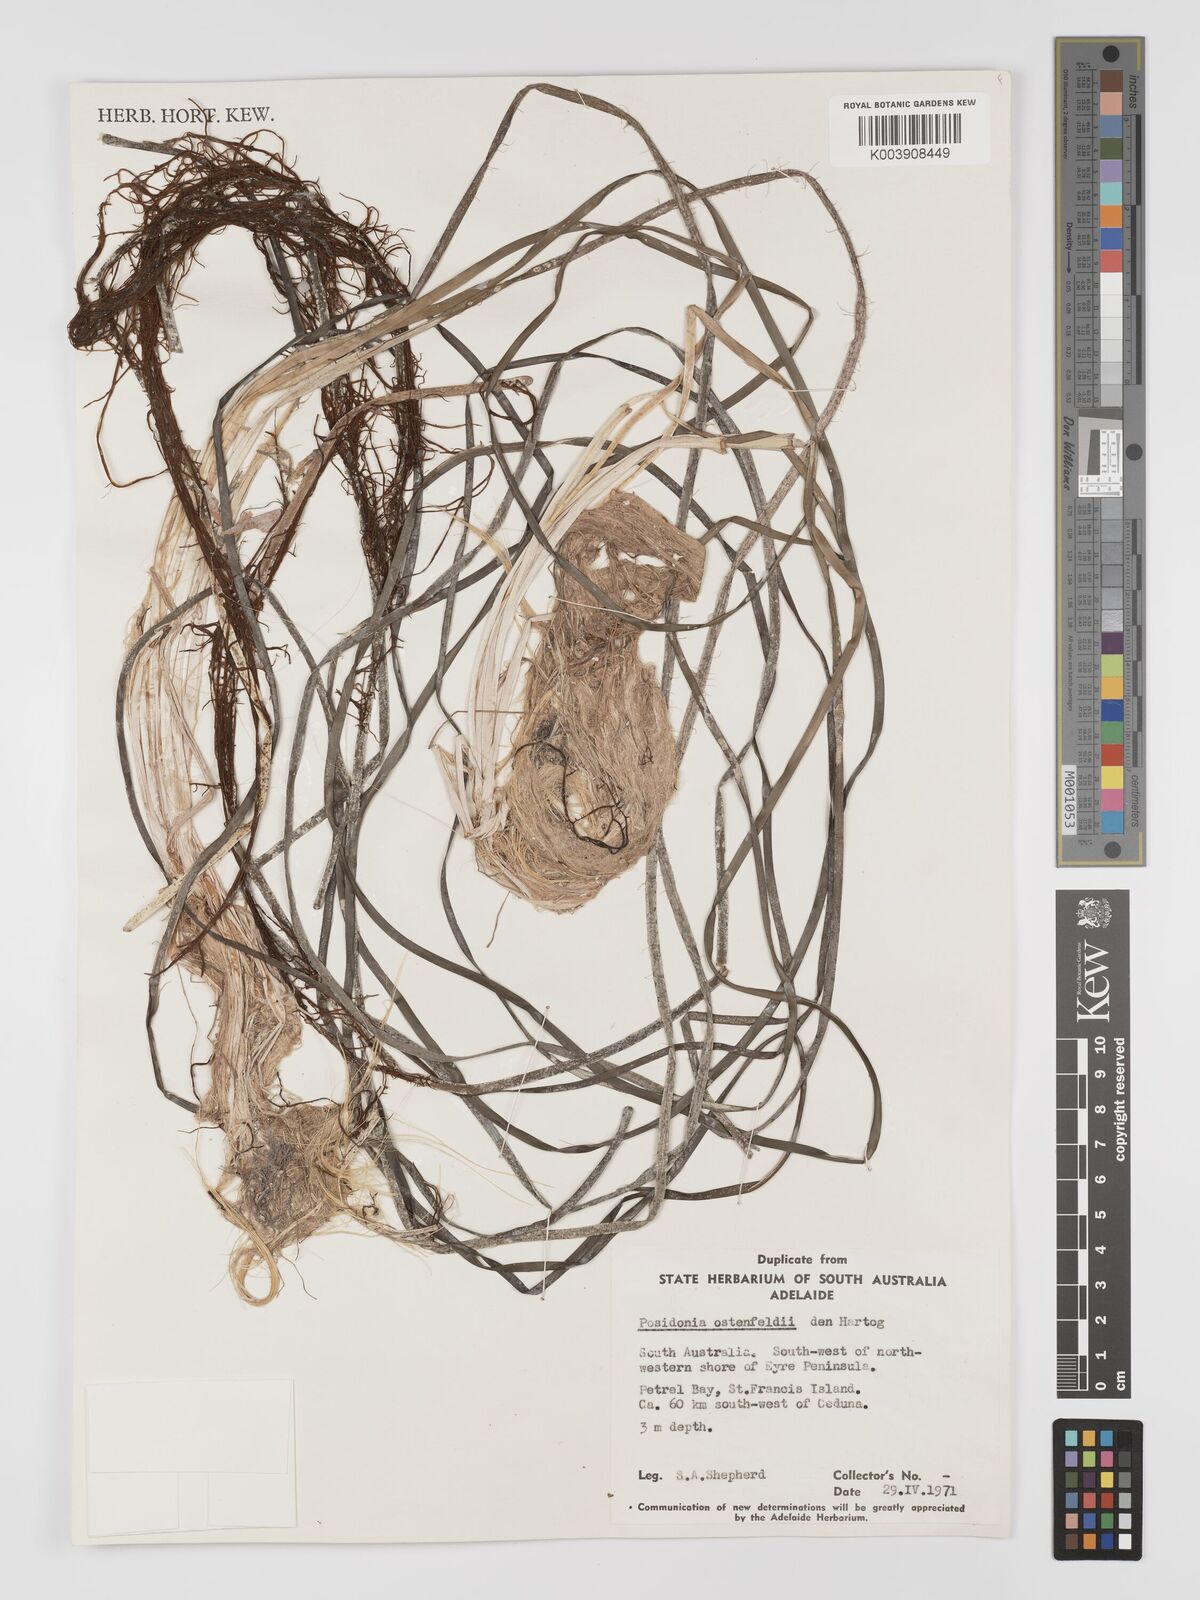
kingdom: Plantae
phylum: Tracheophyta
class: Liliopsida
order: Alismatales
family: Posidoniaceae
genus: Posidonia
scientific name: Posidonia ostenfeldii
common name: Species code: pf
